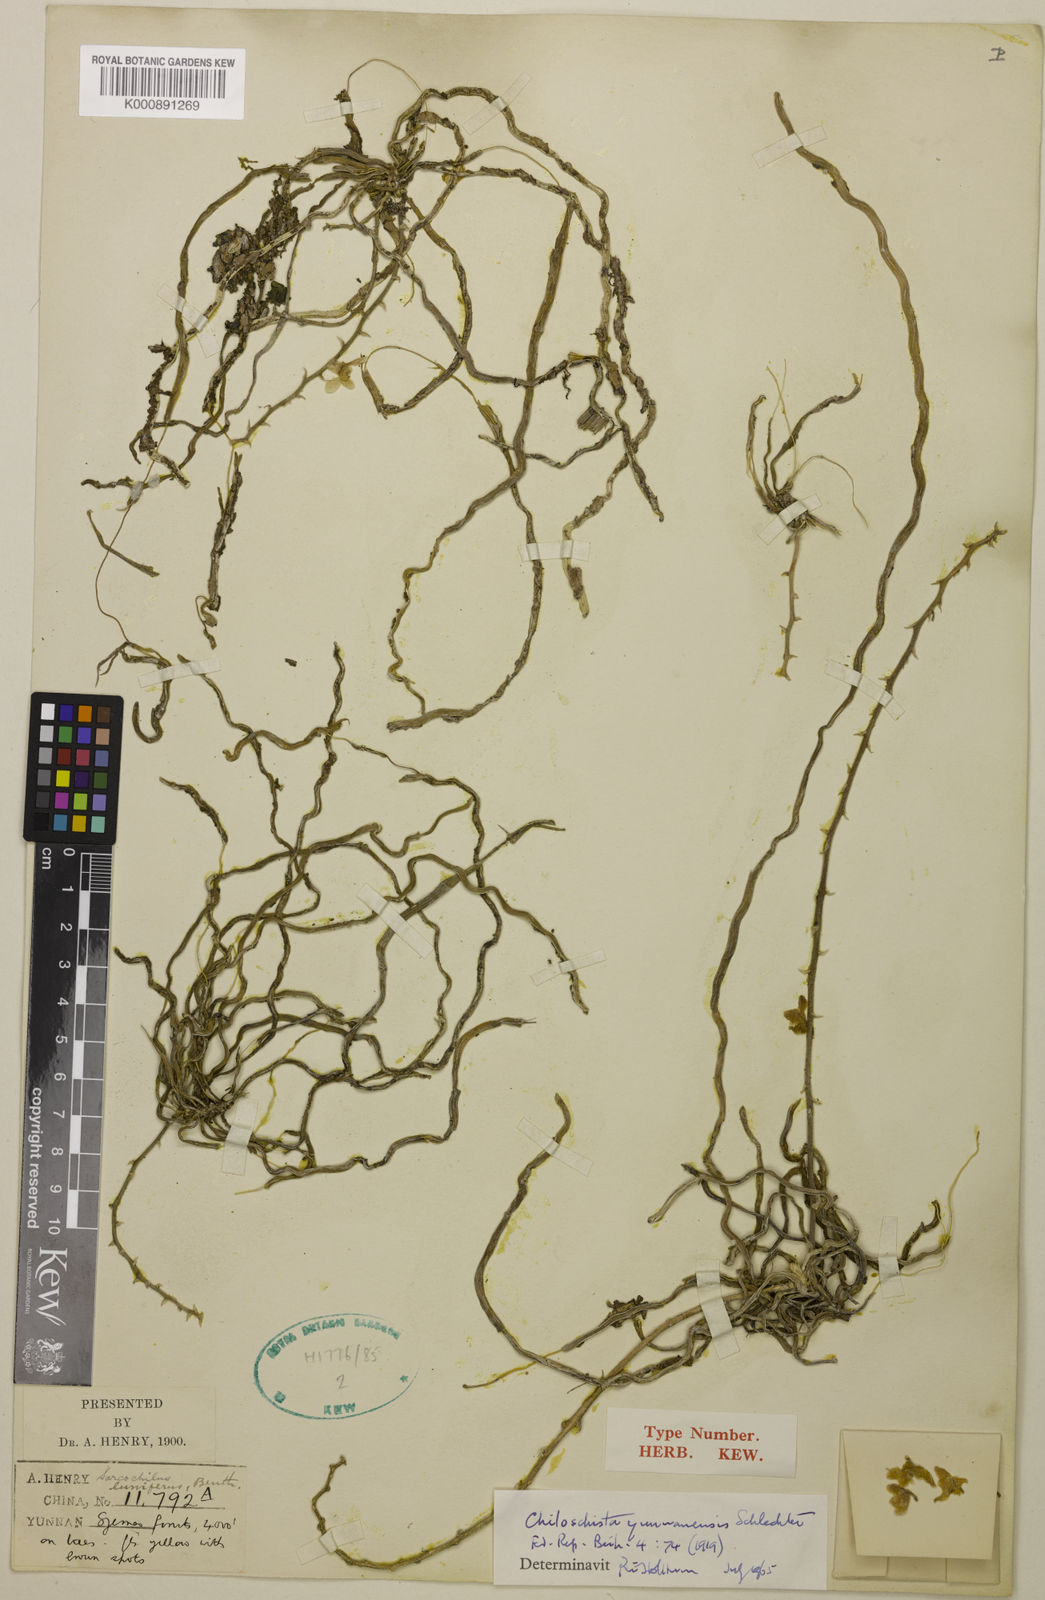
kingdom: Plantae
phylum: Tracheophyta
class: Liliopsida
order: Asparagales
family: Orchidaceae
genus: Chiloschista
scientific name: Chiloschista yunnanensis
